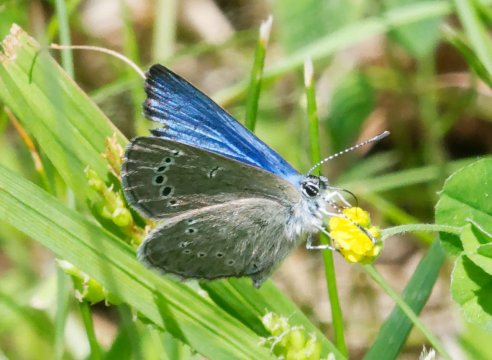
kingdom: Animalia
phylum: Arthropoda
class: Insecta
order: Lepidoptera
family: Lycaenidae
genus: Glaucopsyche
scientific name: Glaucopsyche lygdamus
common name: Silvery Blue
